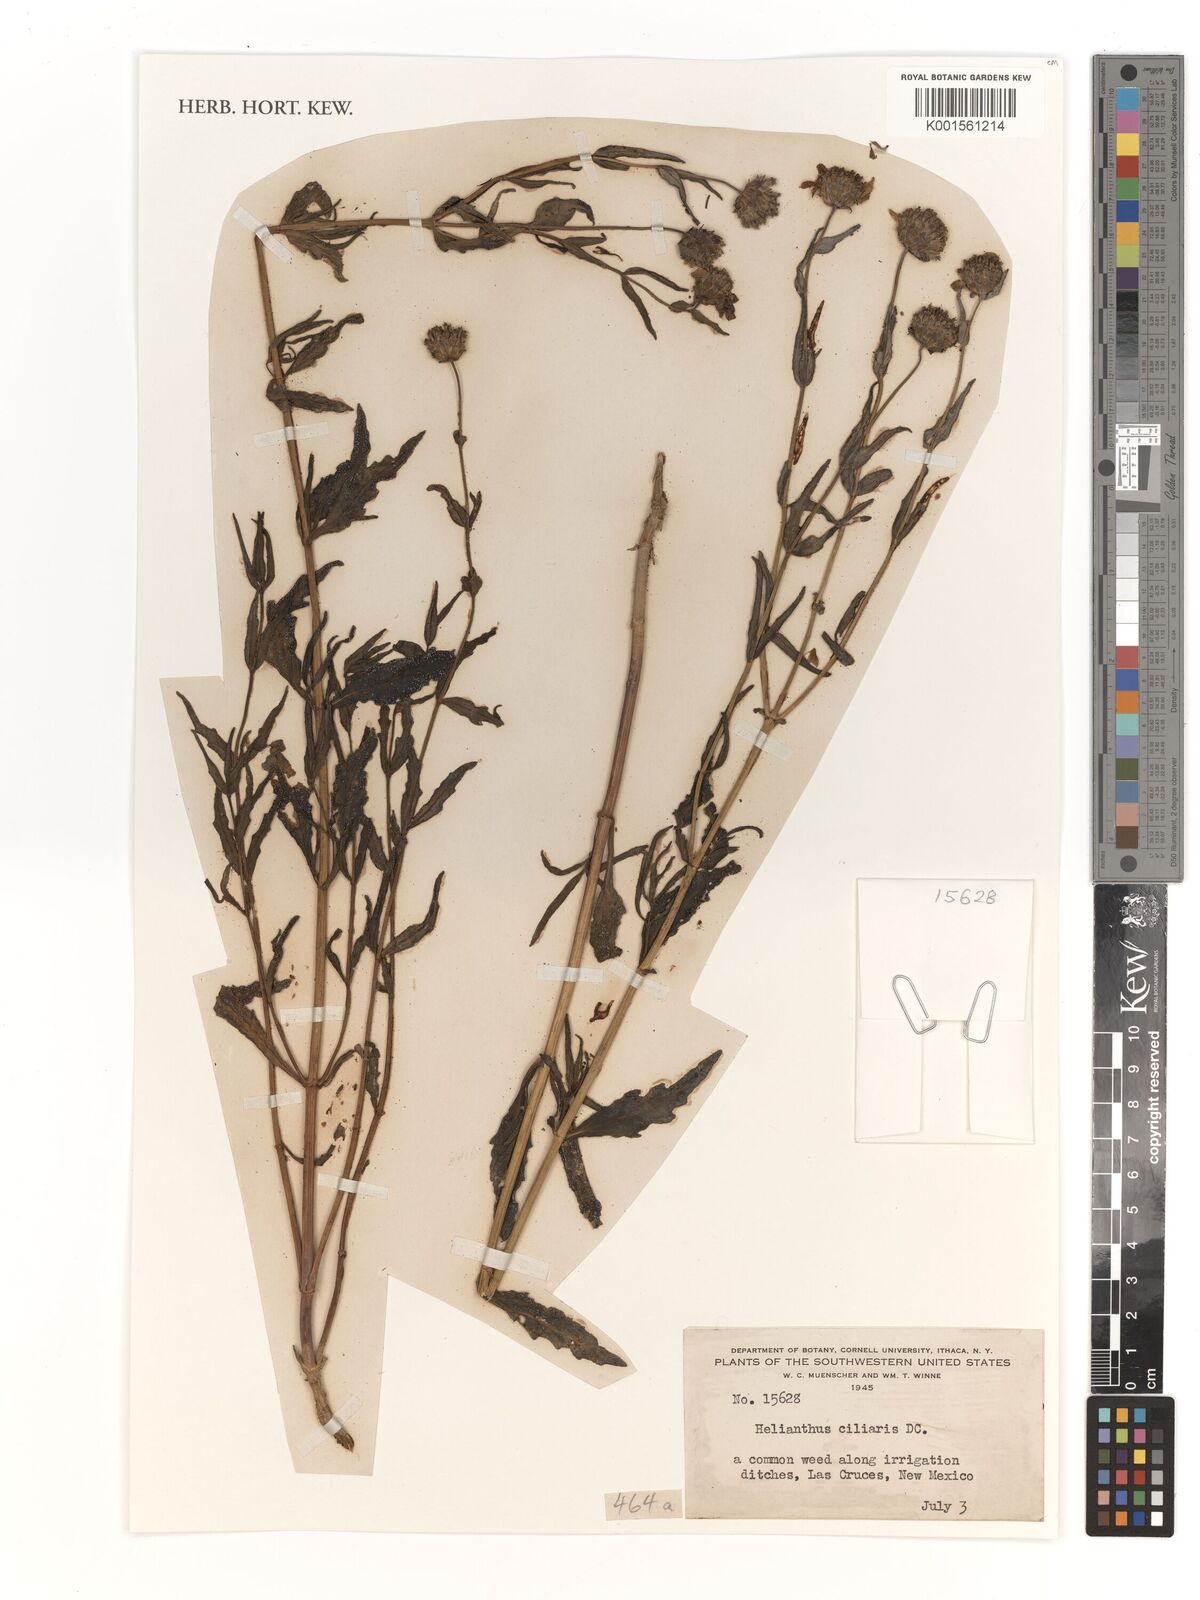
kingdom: Plantae
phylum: Tracheophyta
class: Magnoliopsida
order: Asterales
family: Asteraceae
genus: Helianthus
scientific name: Helianthus ciliaris
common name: Texas blueweed
